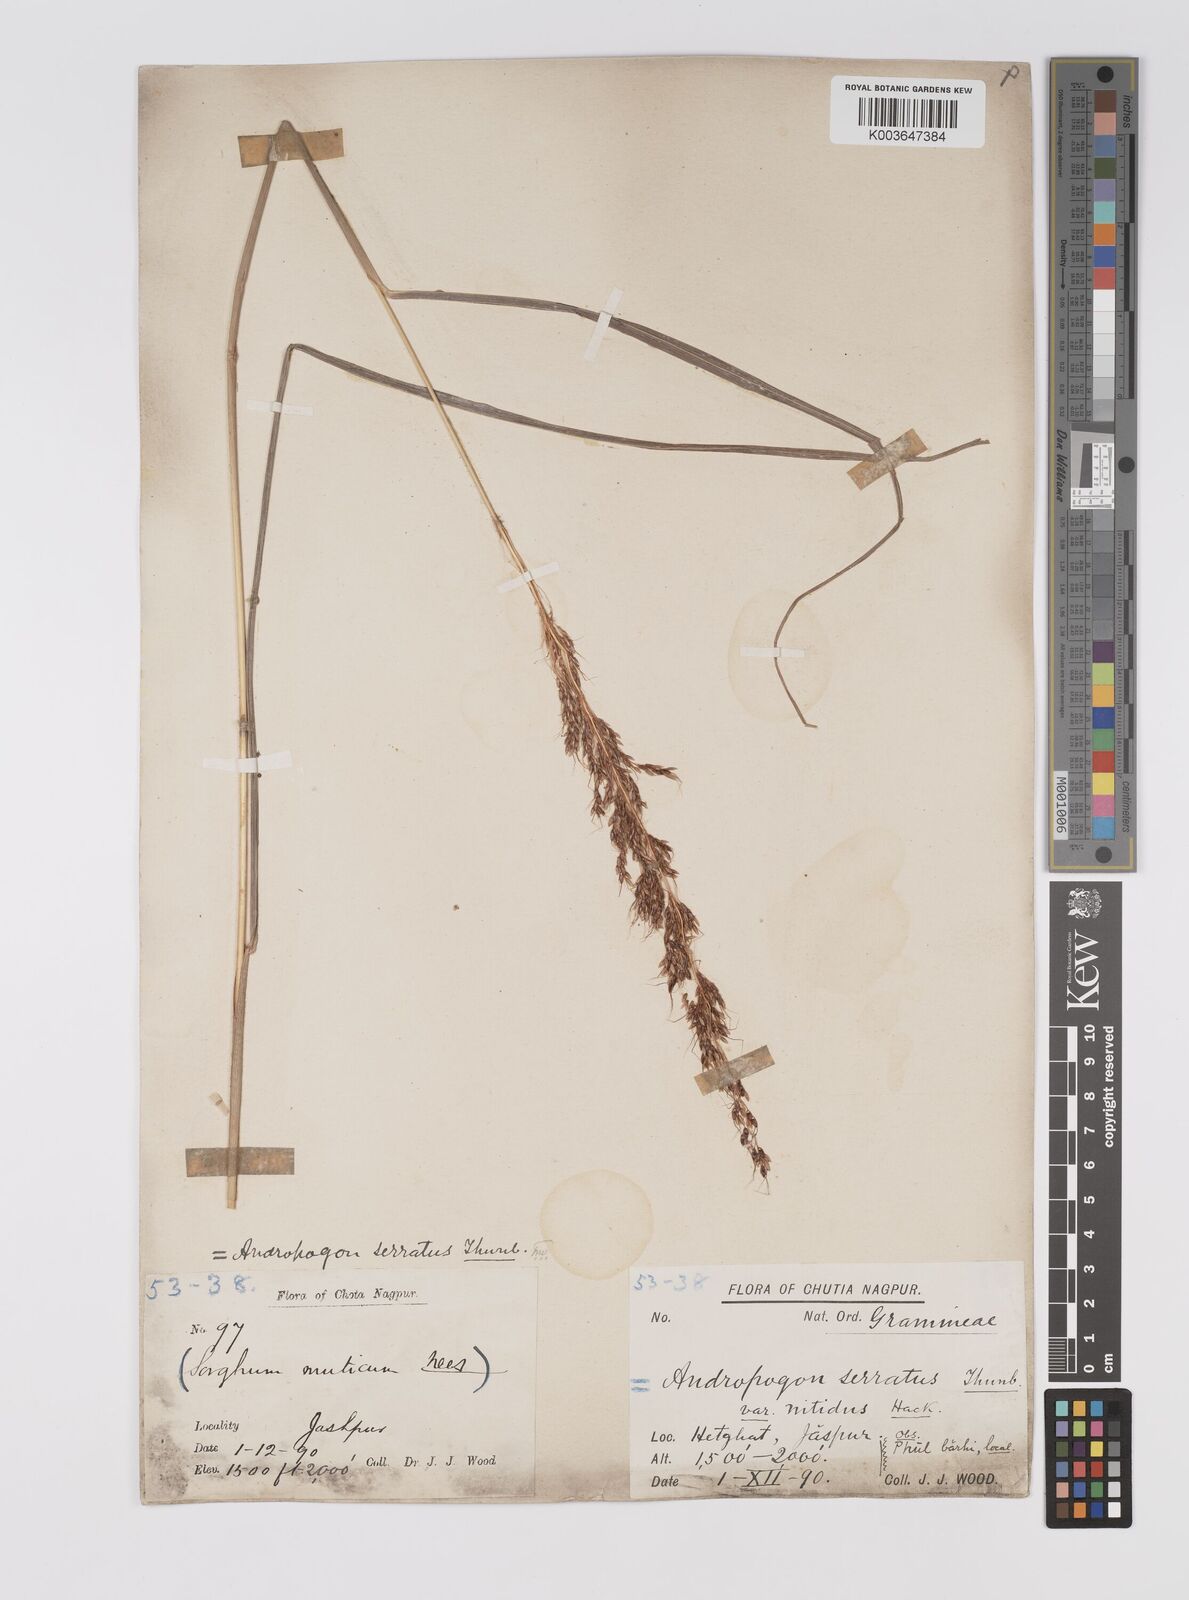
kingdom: Plantae
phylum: Tracheophyta
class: Liliopsida
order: Poales
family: Poaceae
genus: Sorghum
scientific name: Sorghum nitidum
